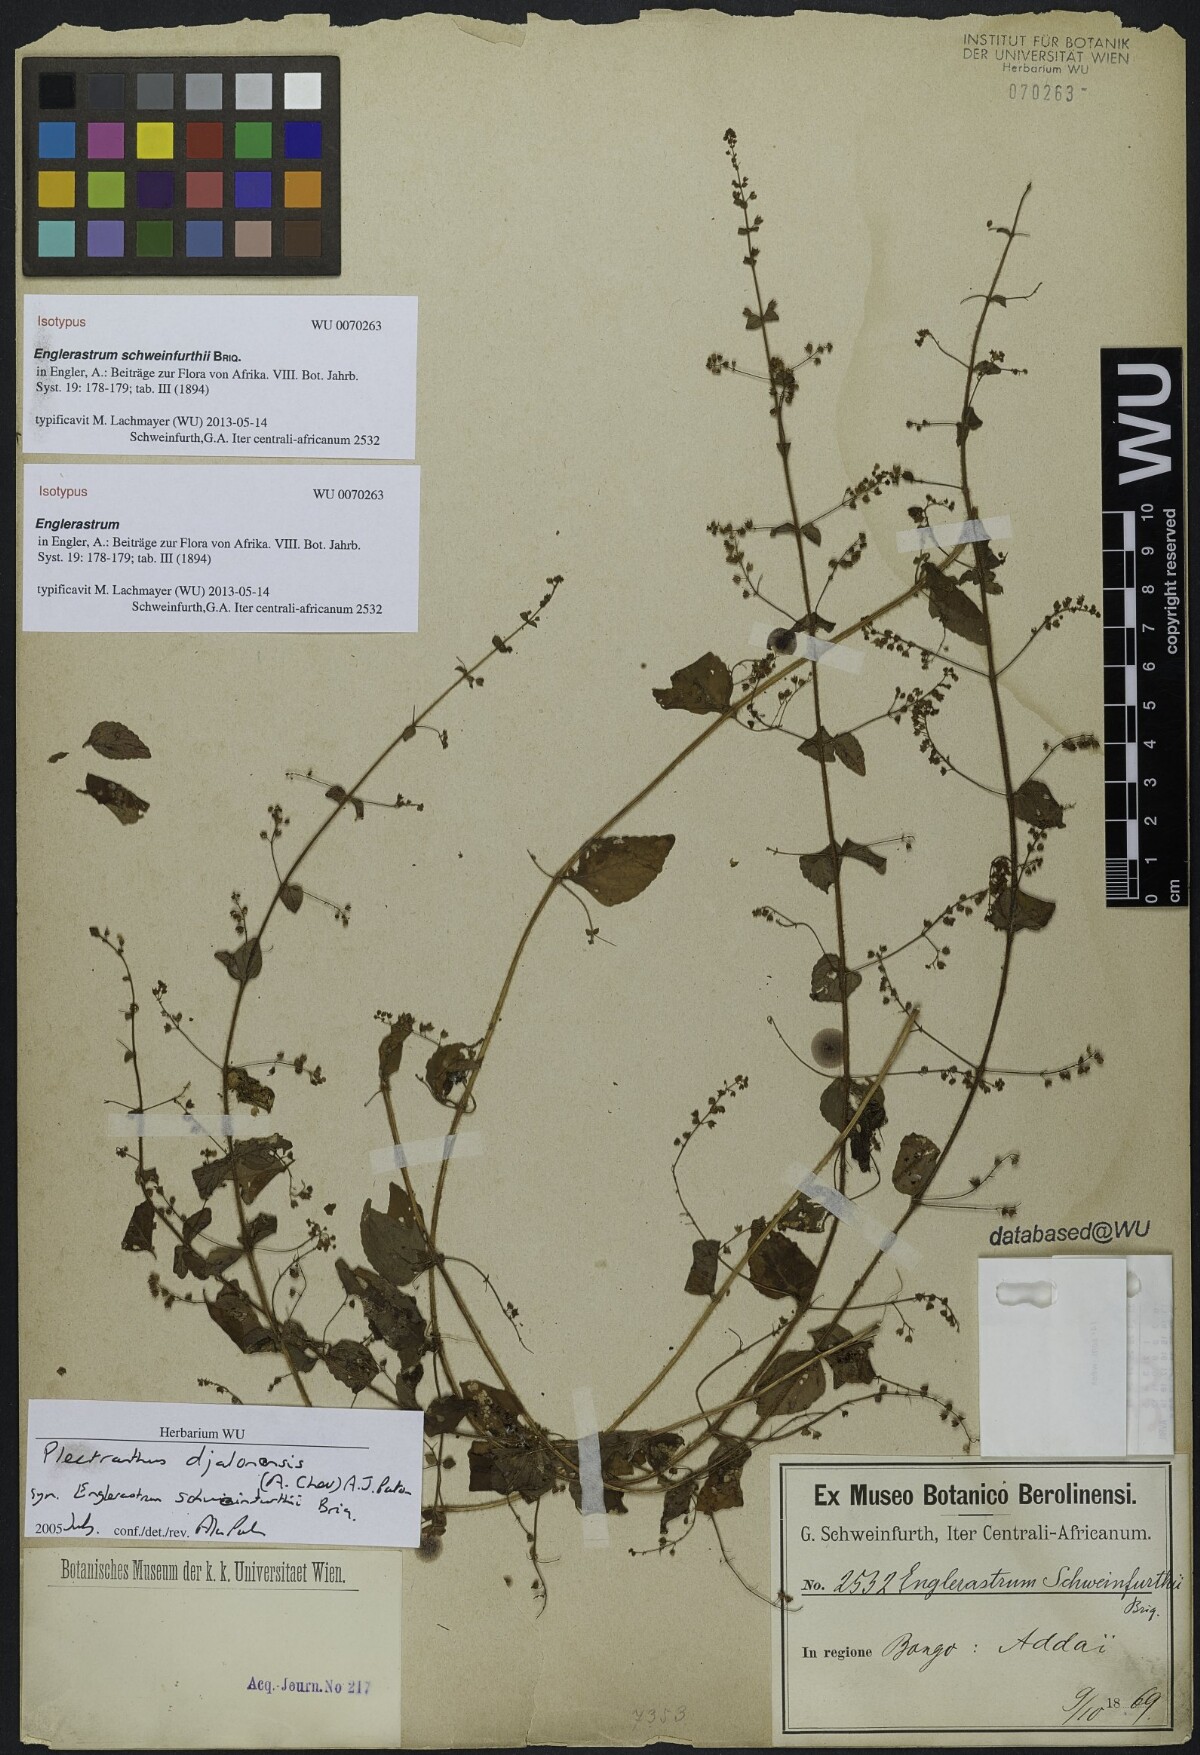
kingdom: Plantae
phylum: Tracheophyta
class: Magnoliopsida
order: Lamiales
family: Lamiaceae
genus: Coleus
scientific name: Coleus rhodesianum
